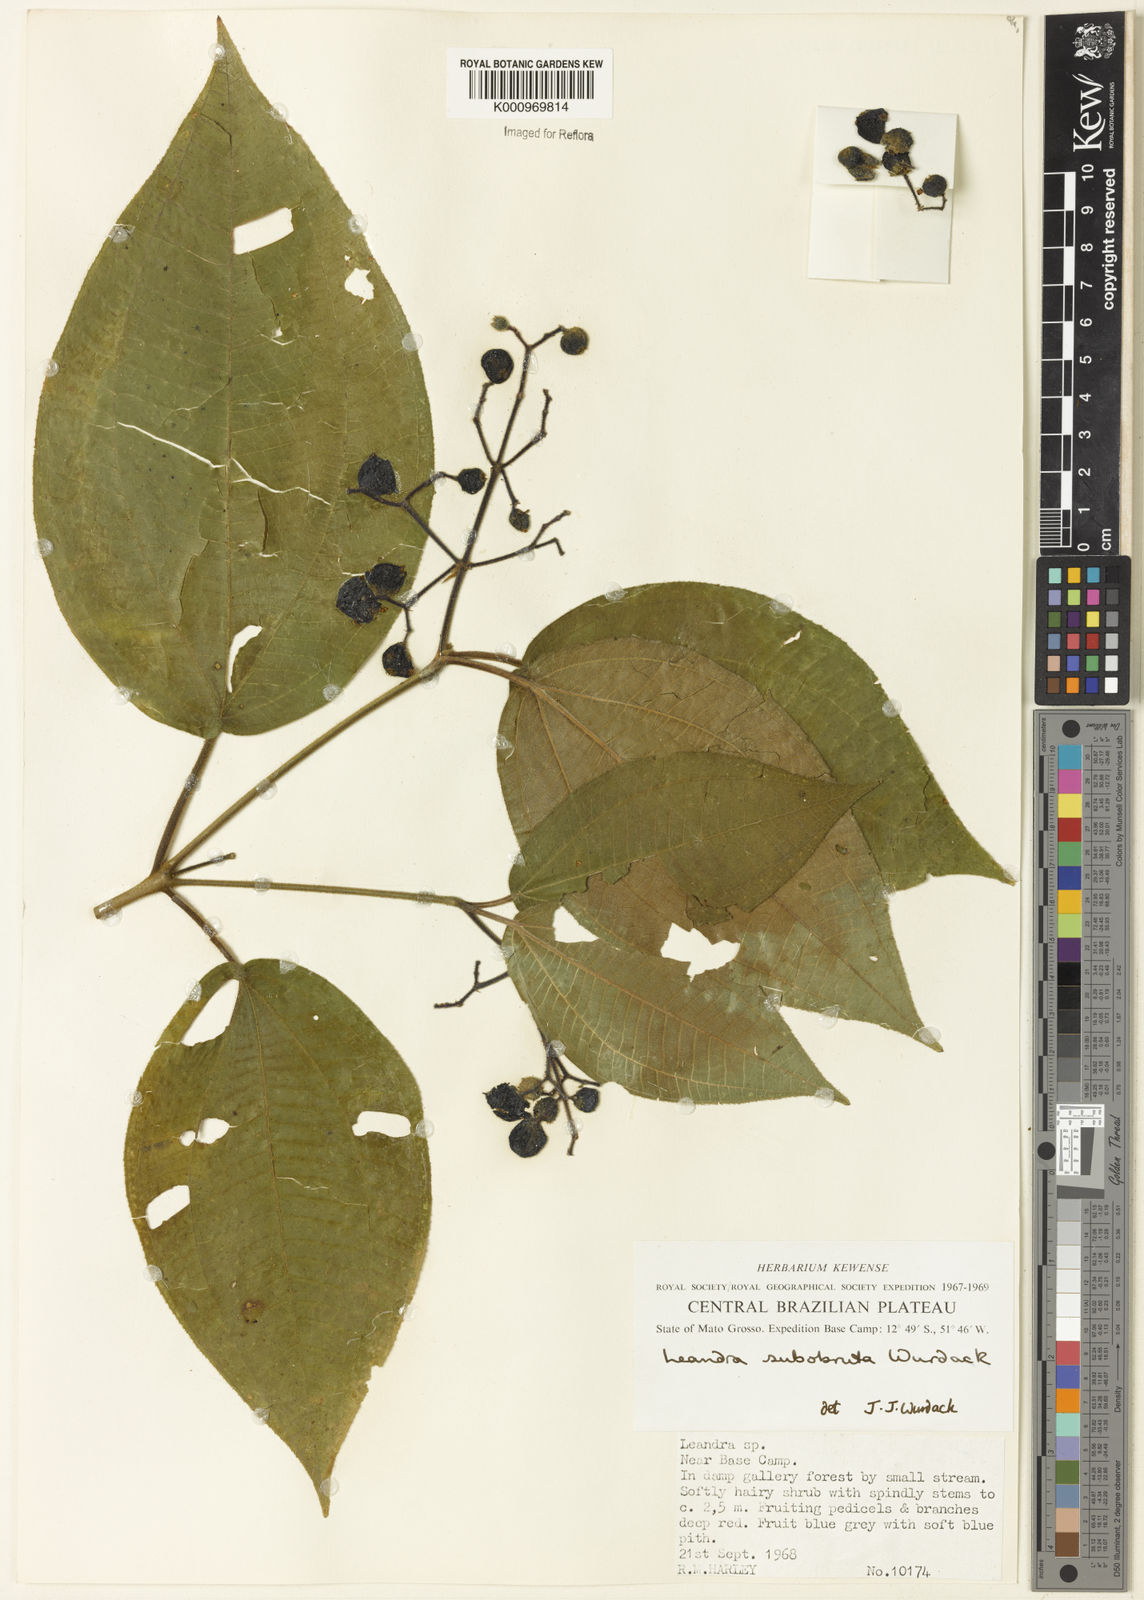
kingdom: Plantae
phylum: Tracheophyta
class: Magnoliopsida
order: Myrtales
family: Melastomataceae
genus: Miconia
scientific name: Miconia subobruta
